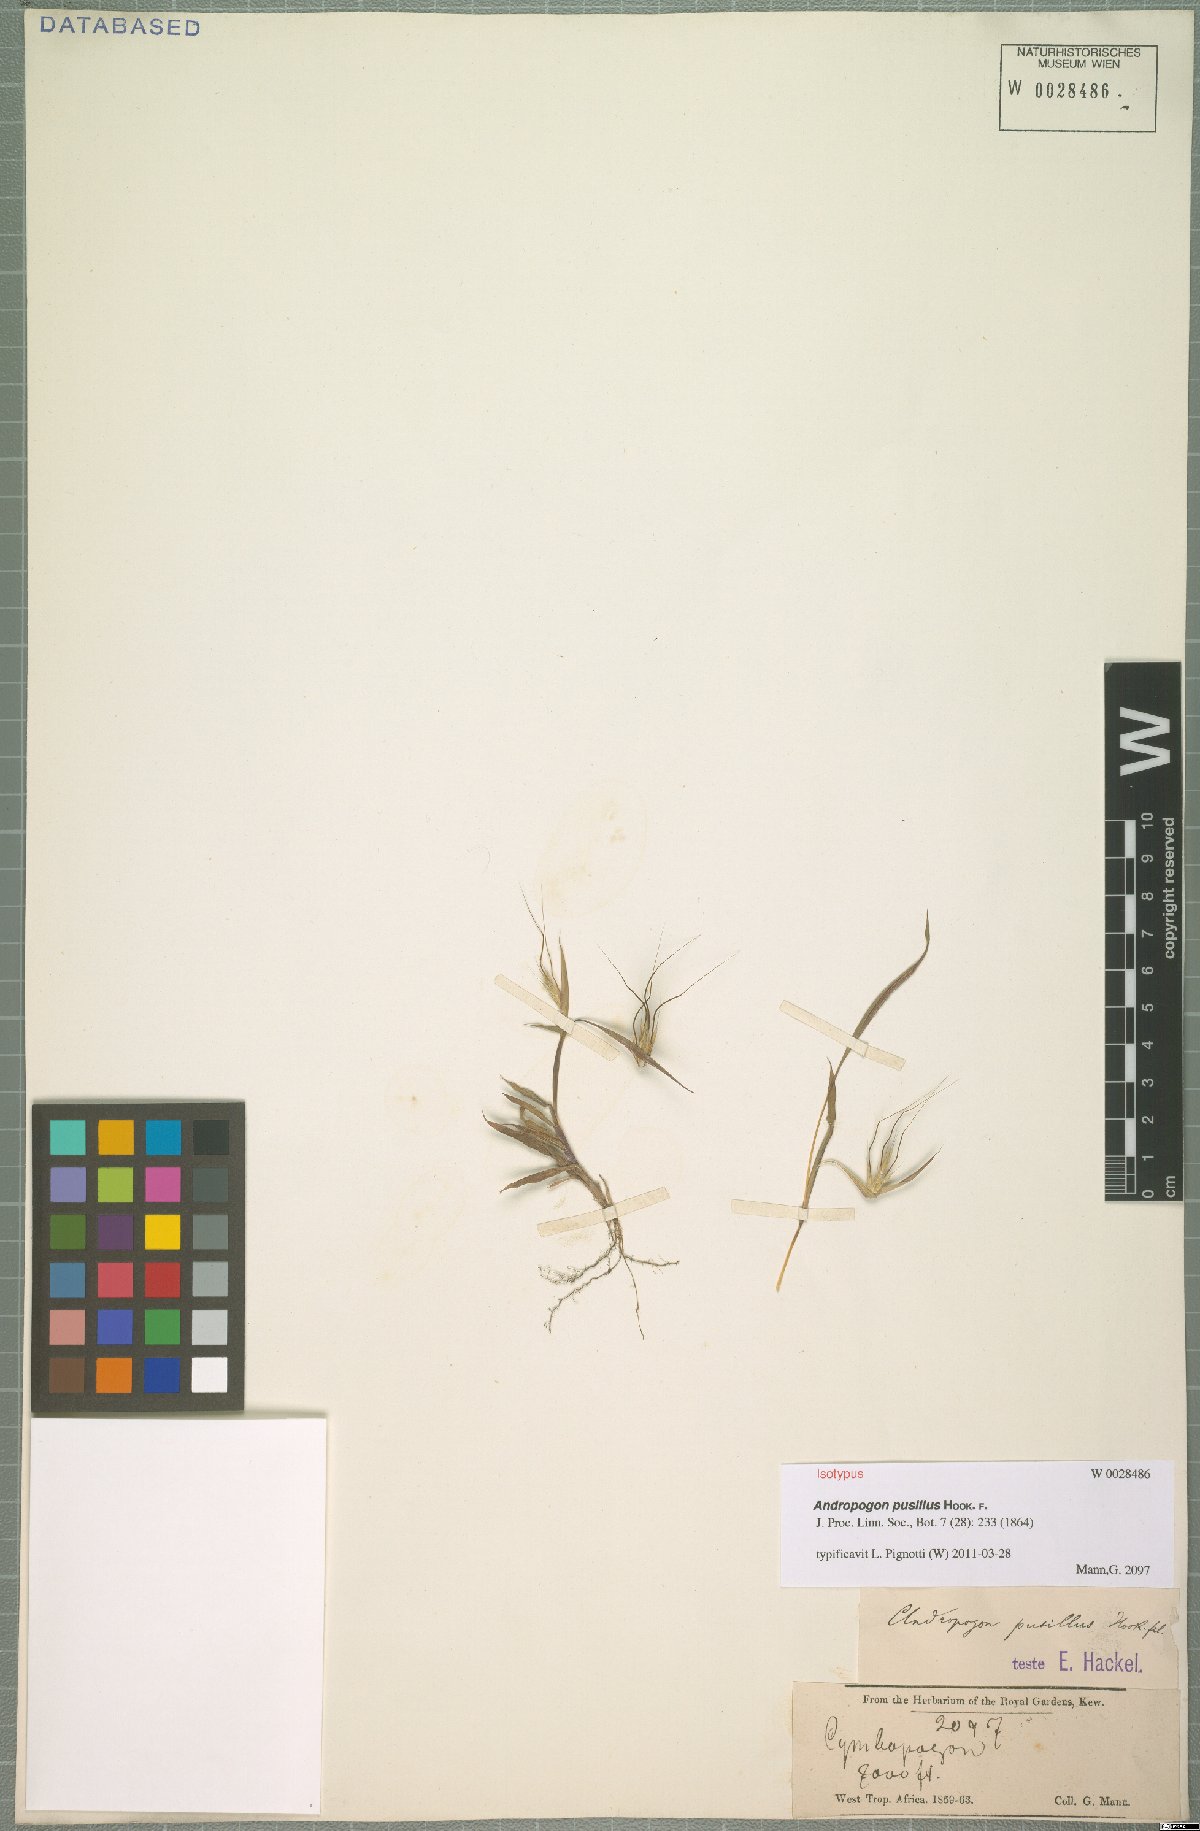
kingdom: Plantae
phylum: Tracheophyta
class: Liliopsida
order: Poales
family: Poaceae
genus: Andropogon
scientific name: Andropogon pusillus
